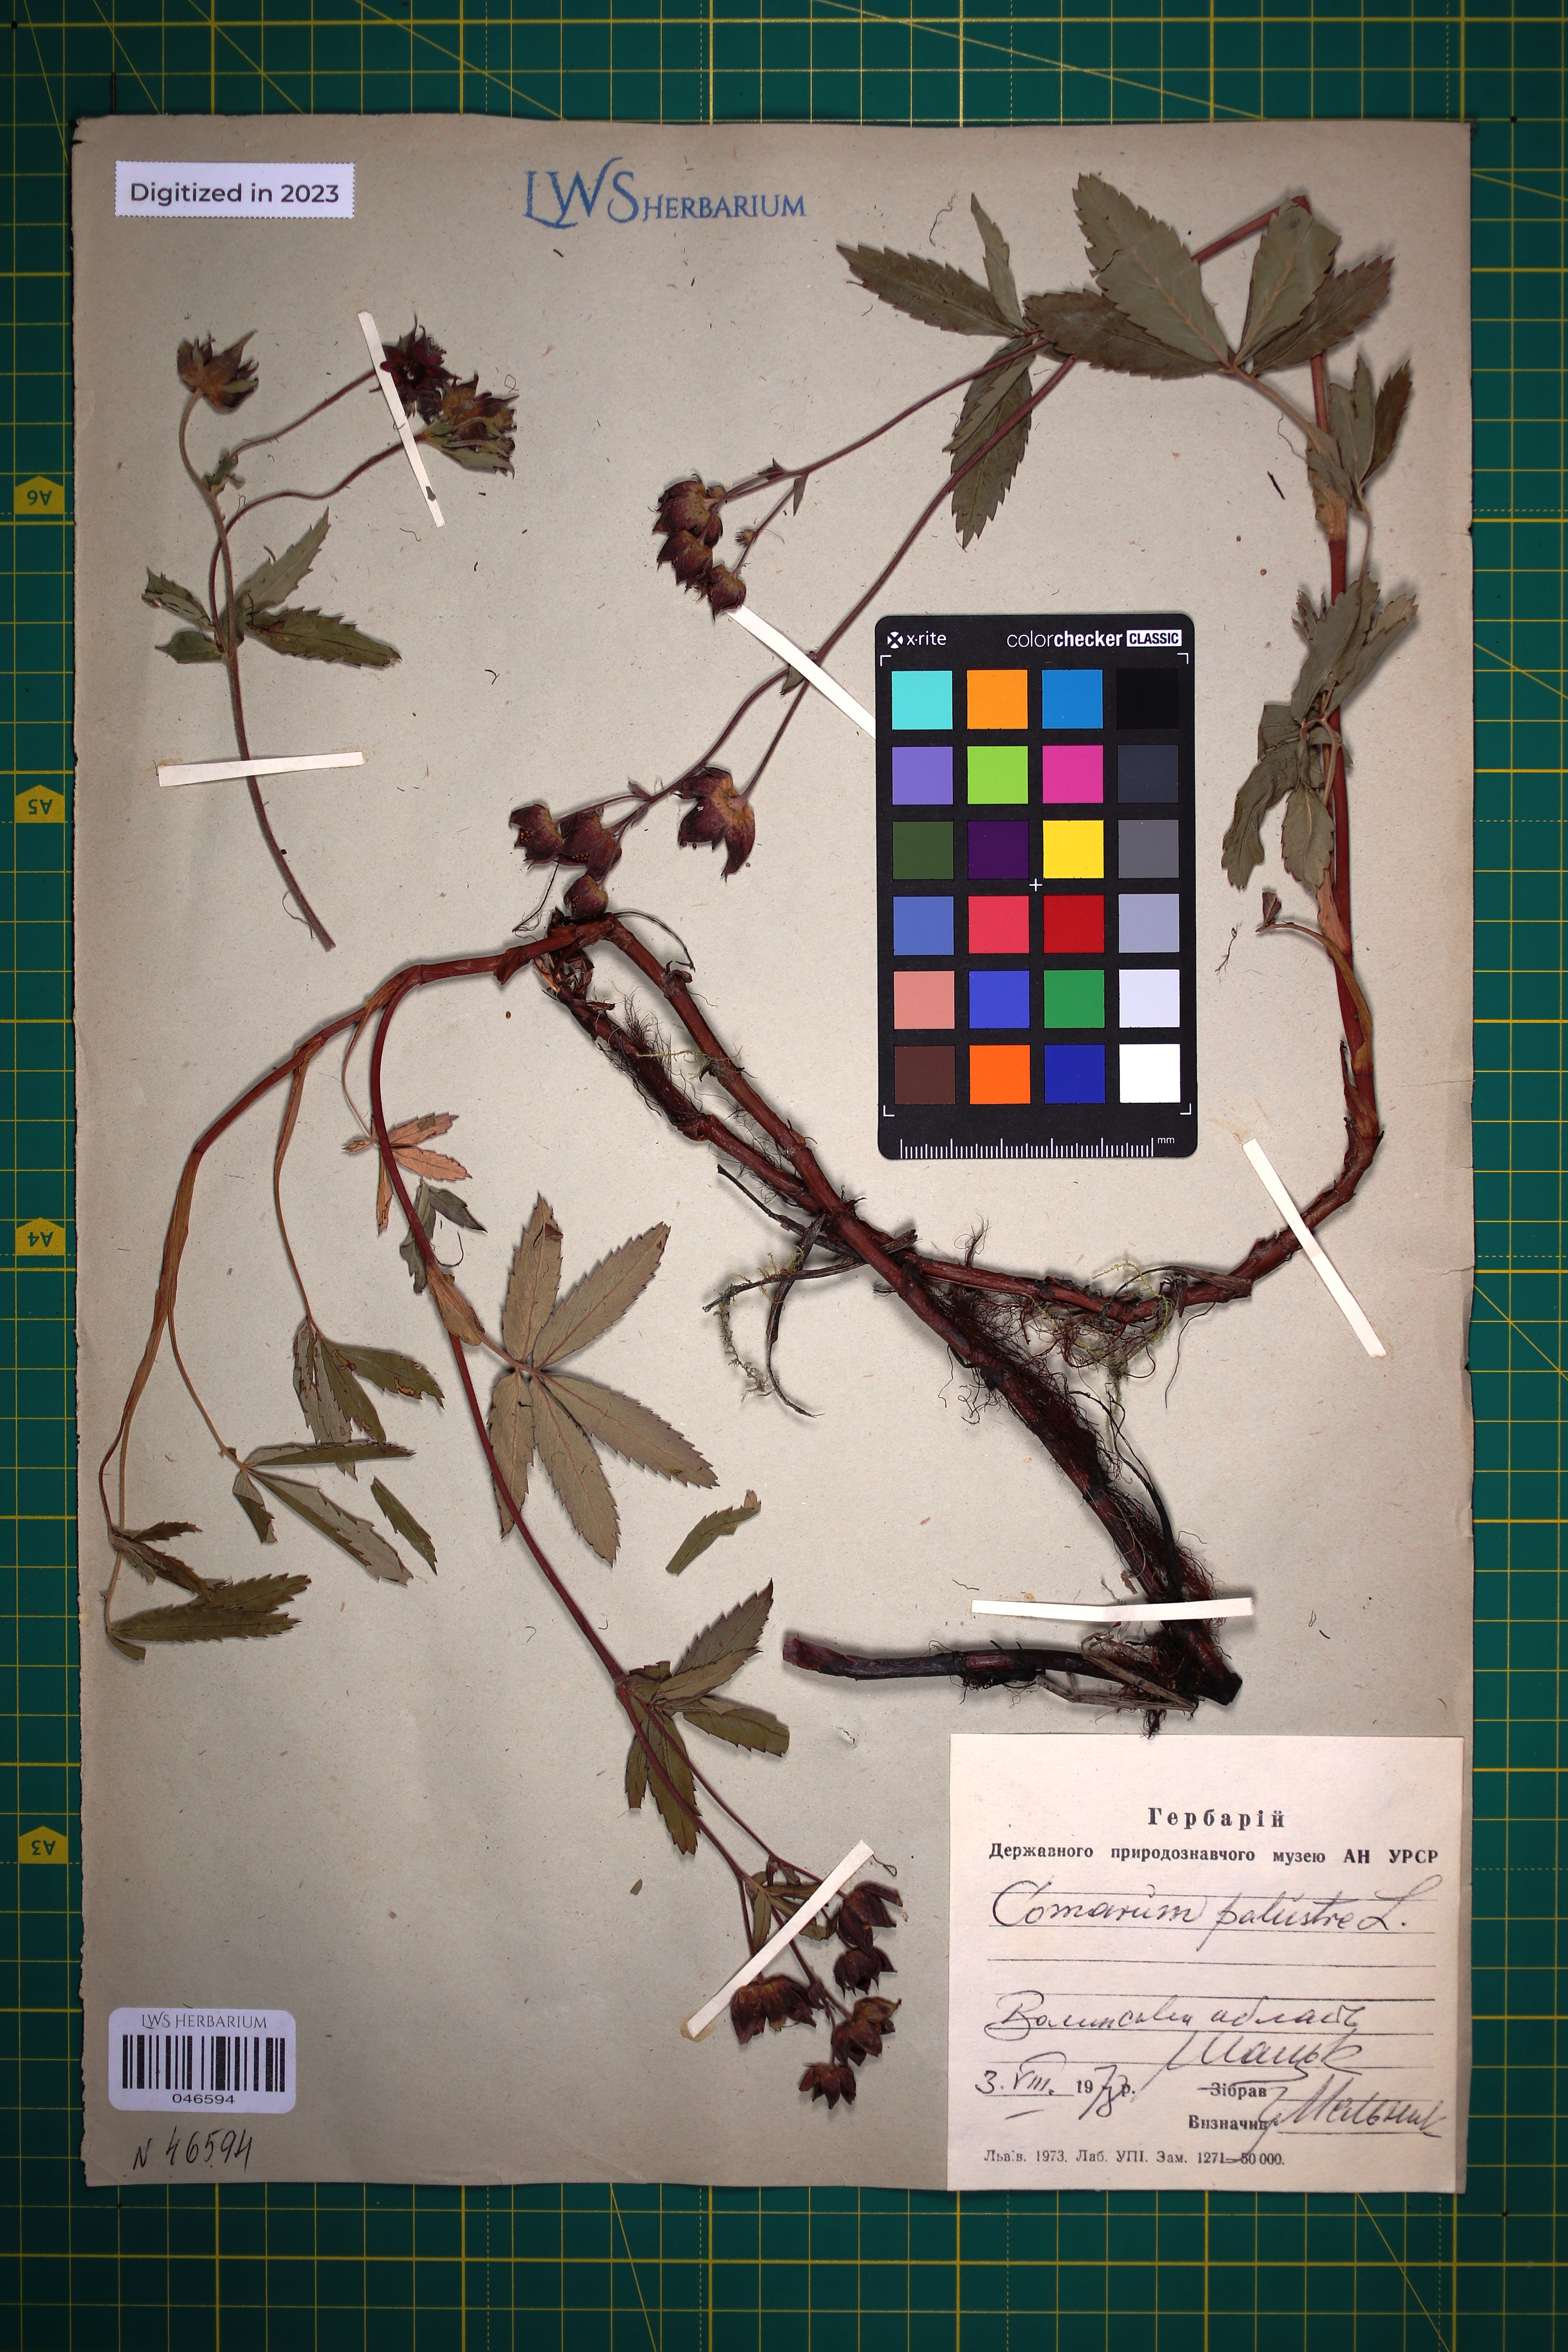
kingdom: Plantae
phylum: Tracheophyta
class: Magnoliopsida
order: Rosales
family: Rosaceae
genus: Comarum
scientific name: Comarum palustre
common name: Marsh cinquefoil
